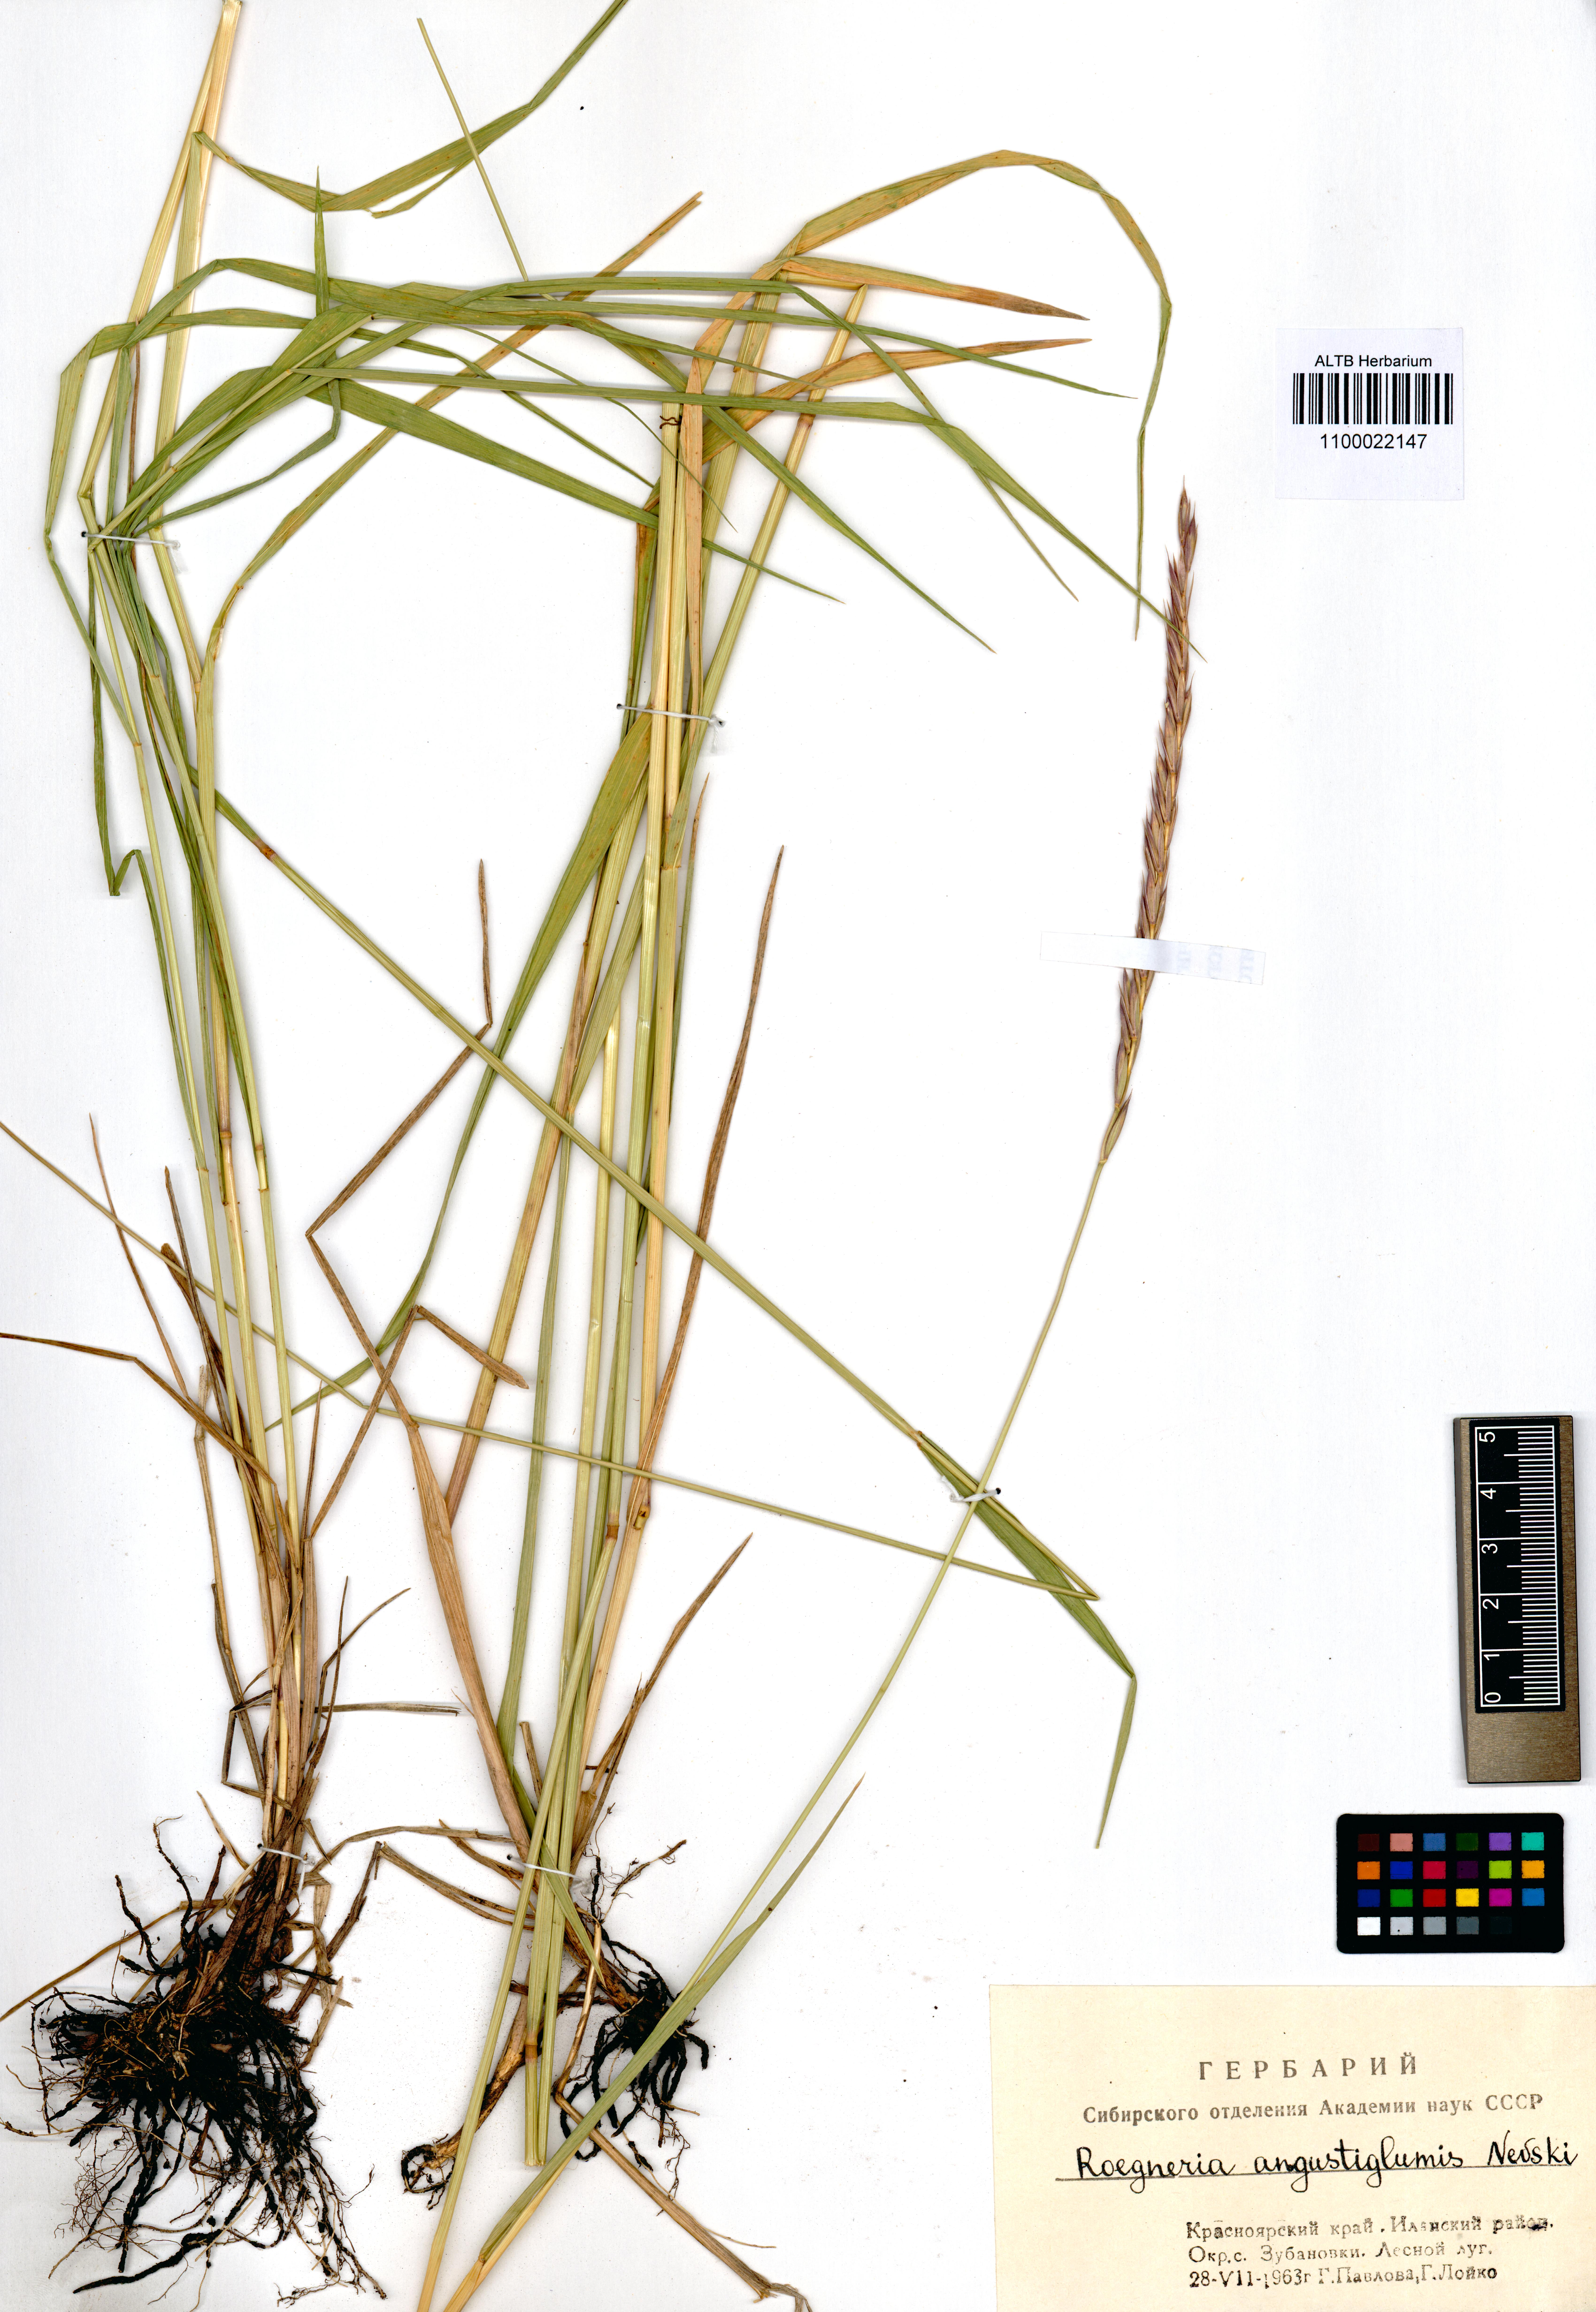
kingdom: Plantae
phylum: Tracheophyta
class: Liliopsida
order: Poales
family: Poaceae
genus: Elymus
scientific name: Elymus mutabilis
